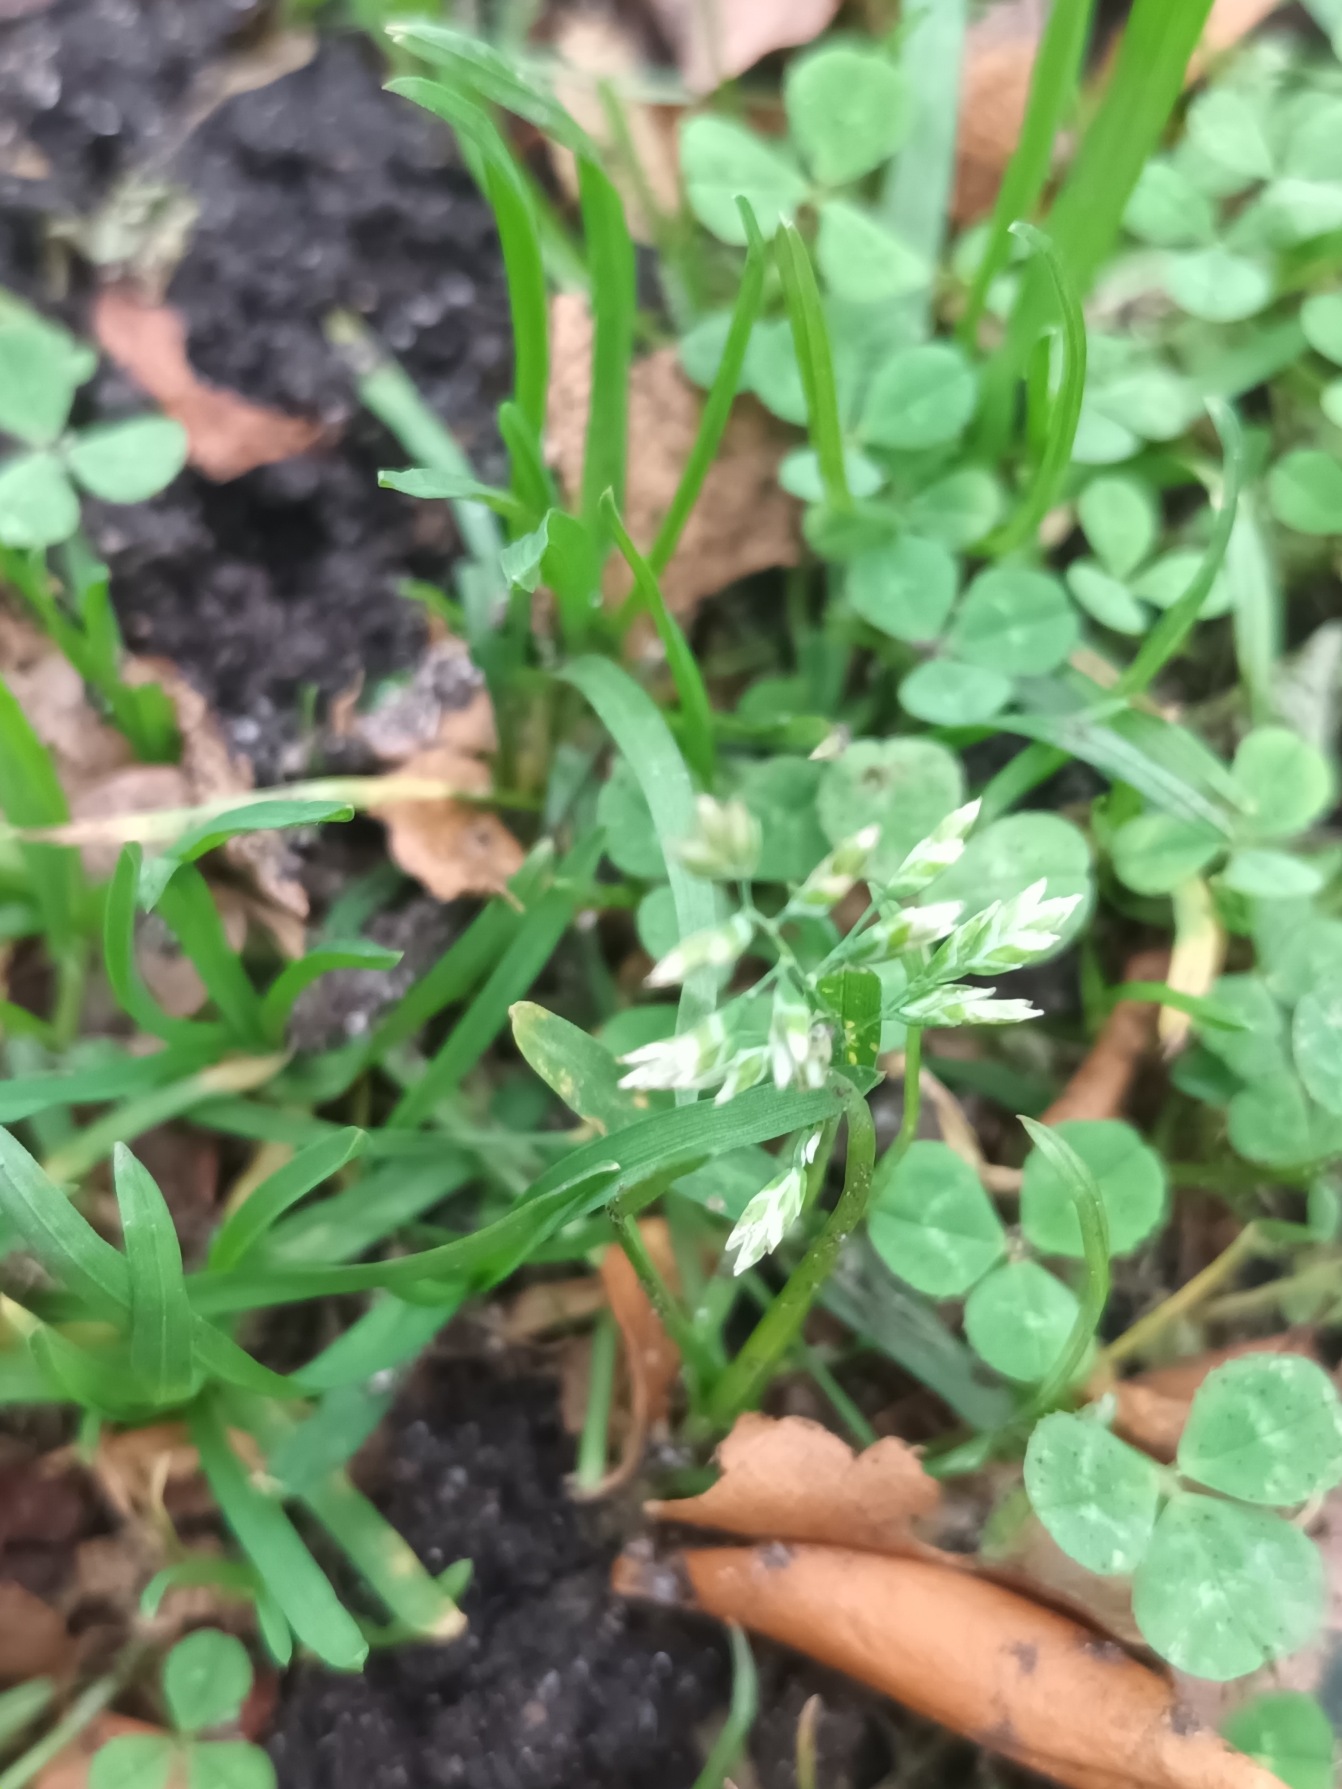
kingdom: Plantae
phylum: Tracheophyta
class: Liliopsida
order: Poales
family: Poaceae
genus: Poa
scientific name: Poa annua
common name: Enårig rapgræs
